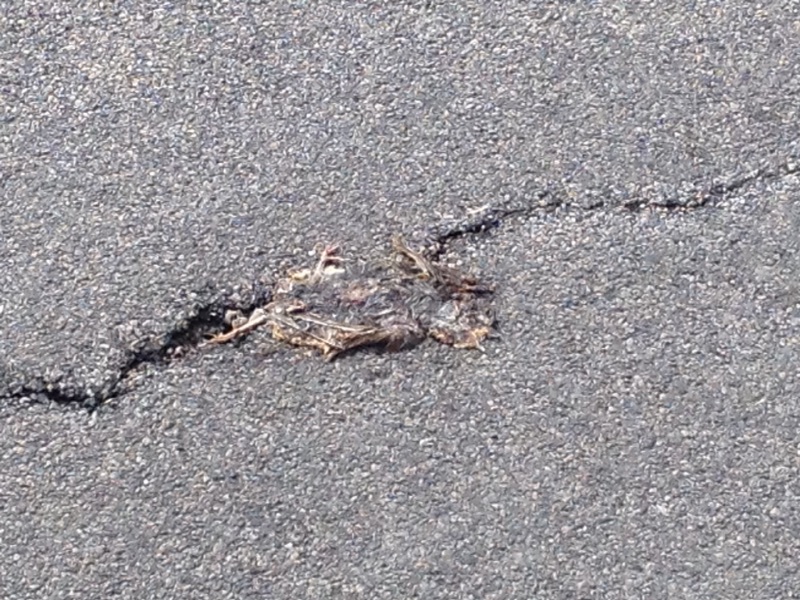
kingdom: Animalia
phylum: Chordata
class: Aves
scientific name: Aves
